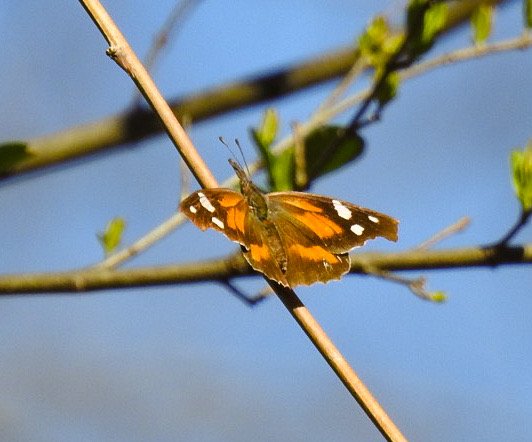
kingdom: Animalia
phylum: Arthropoda
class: Insecta
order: Lepidoptera
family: Nymphalidae
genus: Libytheana
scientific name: Libytheana carinenta
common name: American Snout
